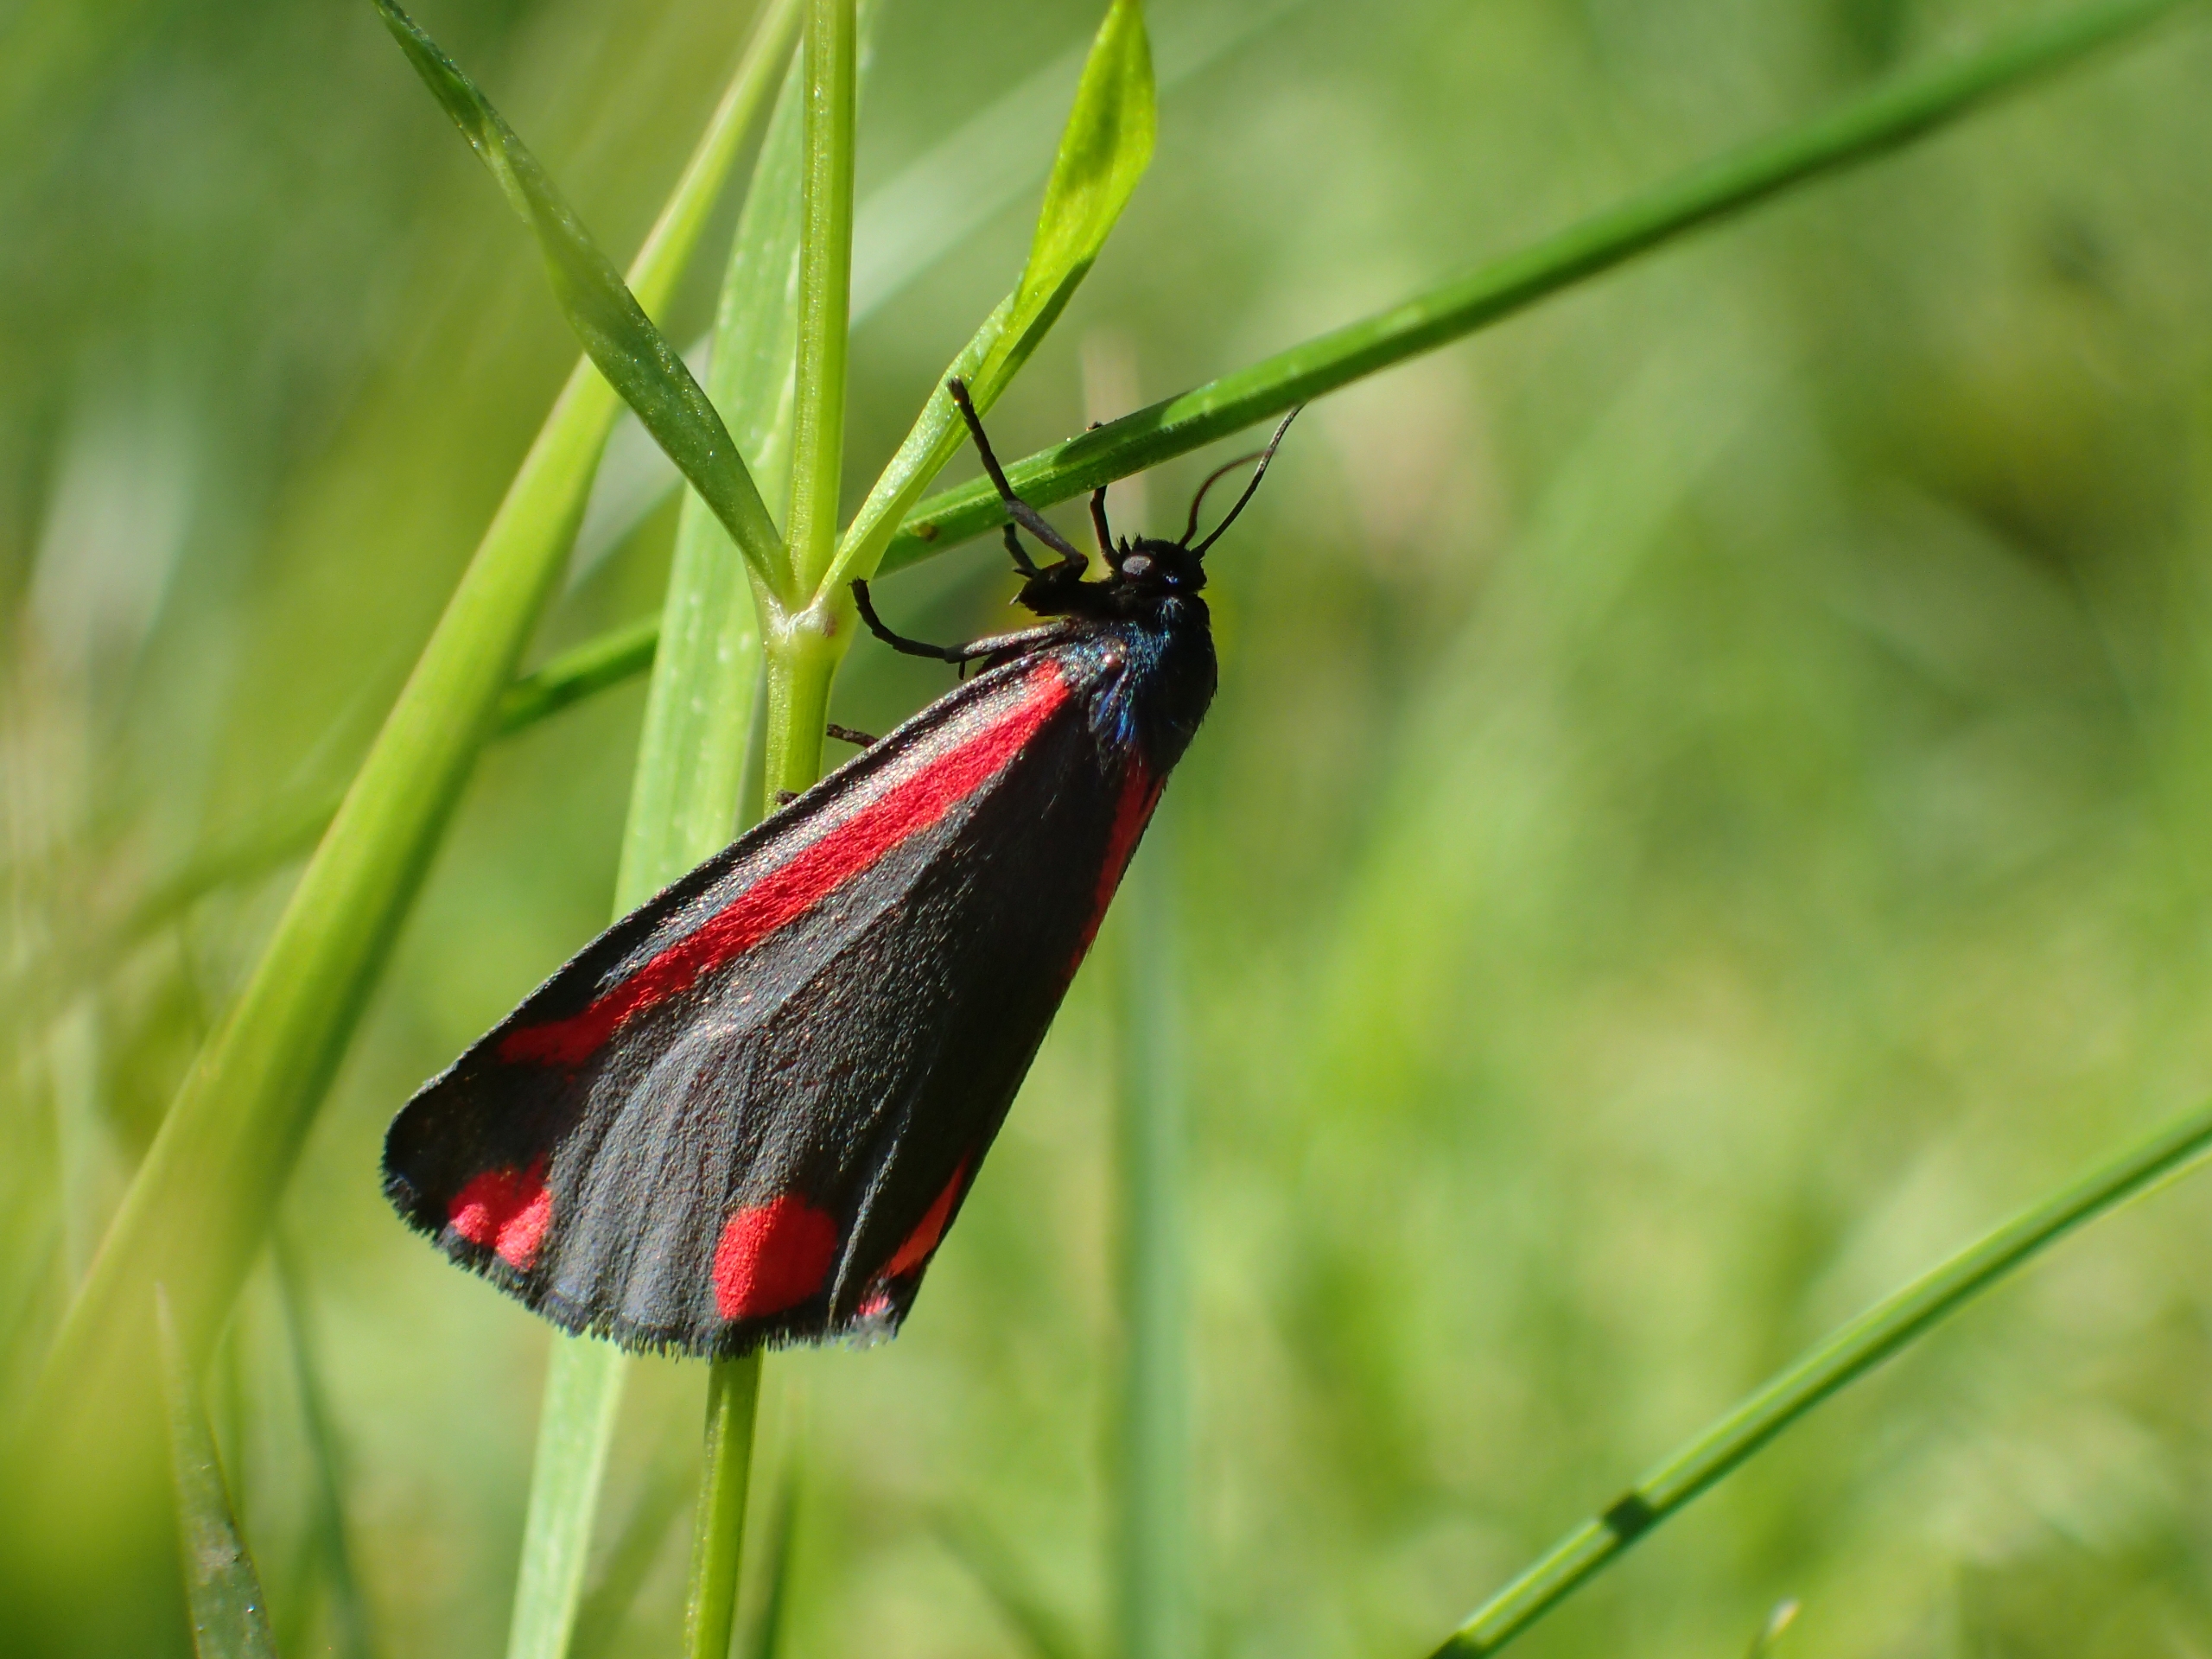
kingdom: Animalia
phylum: Arthropoda
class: Insecta
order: Lepidoptera
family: Erebidae
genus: Tyria
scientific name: Tyria jacobaeae
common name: Blodplet
